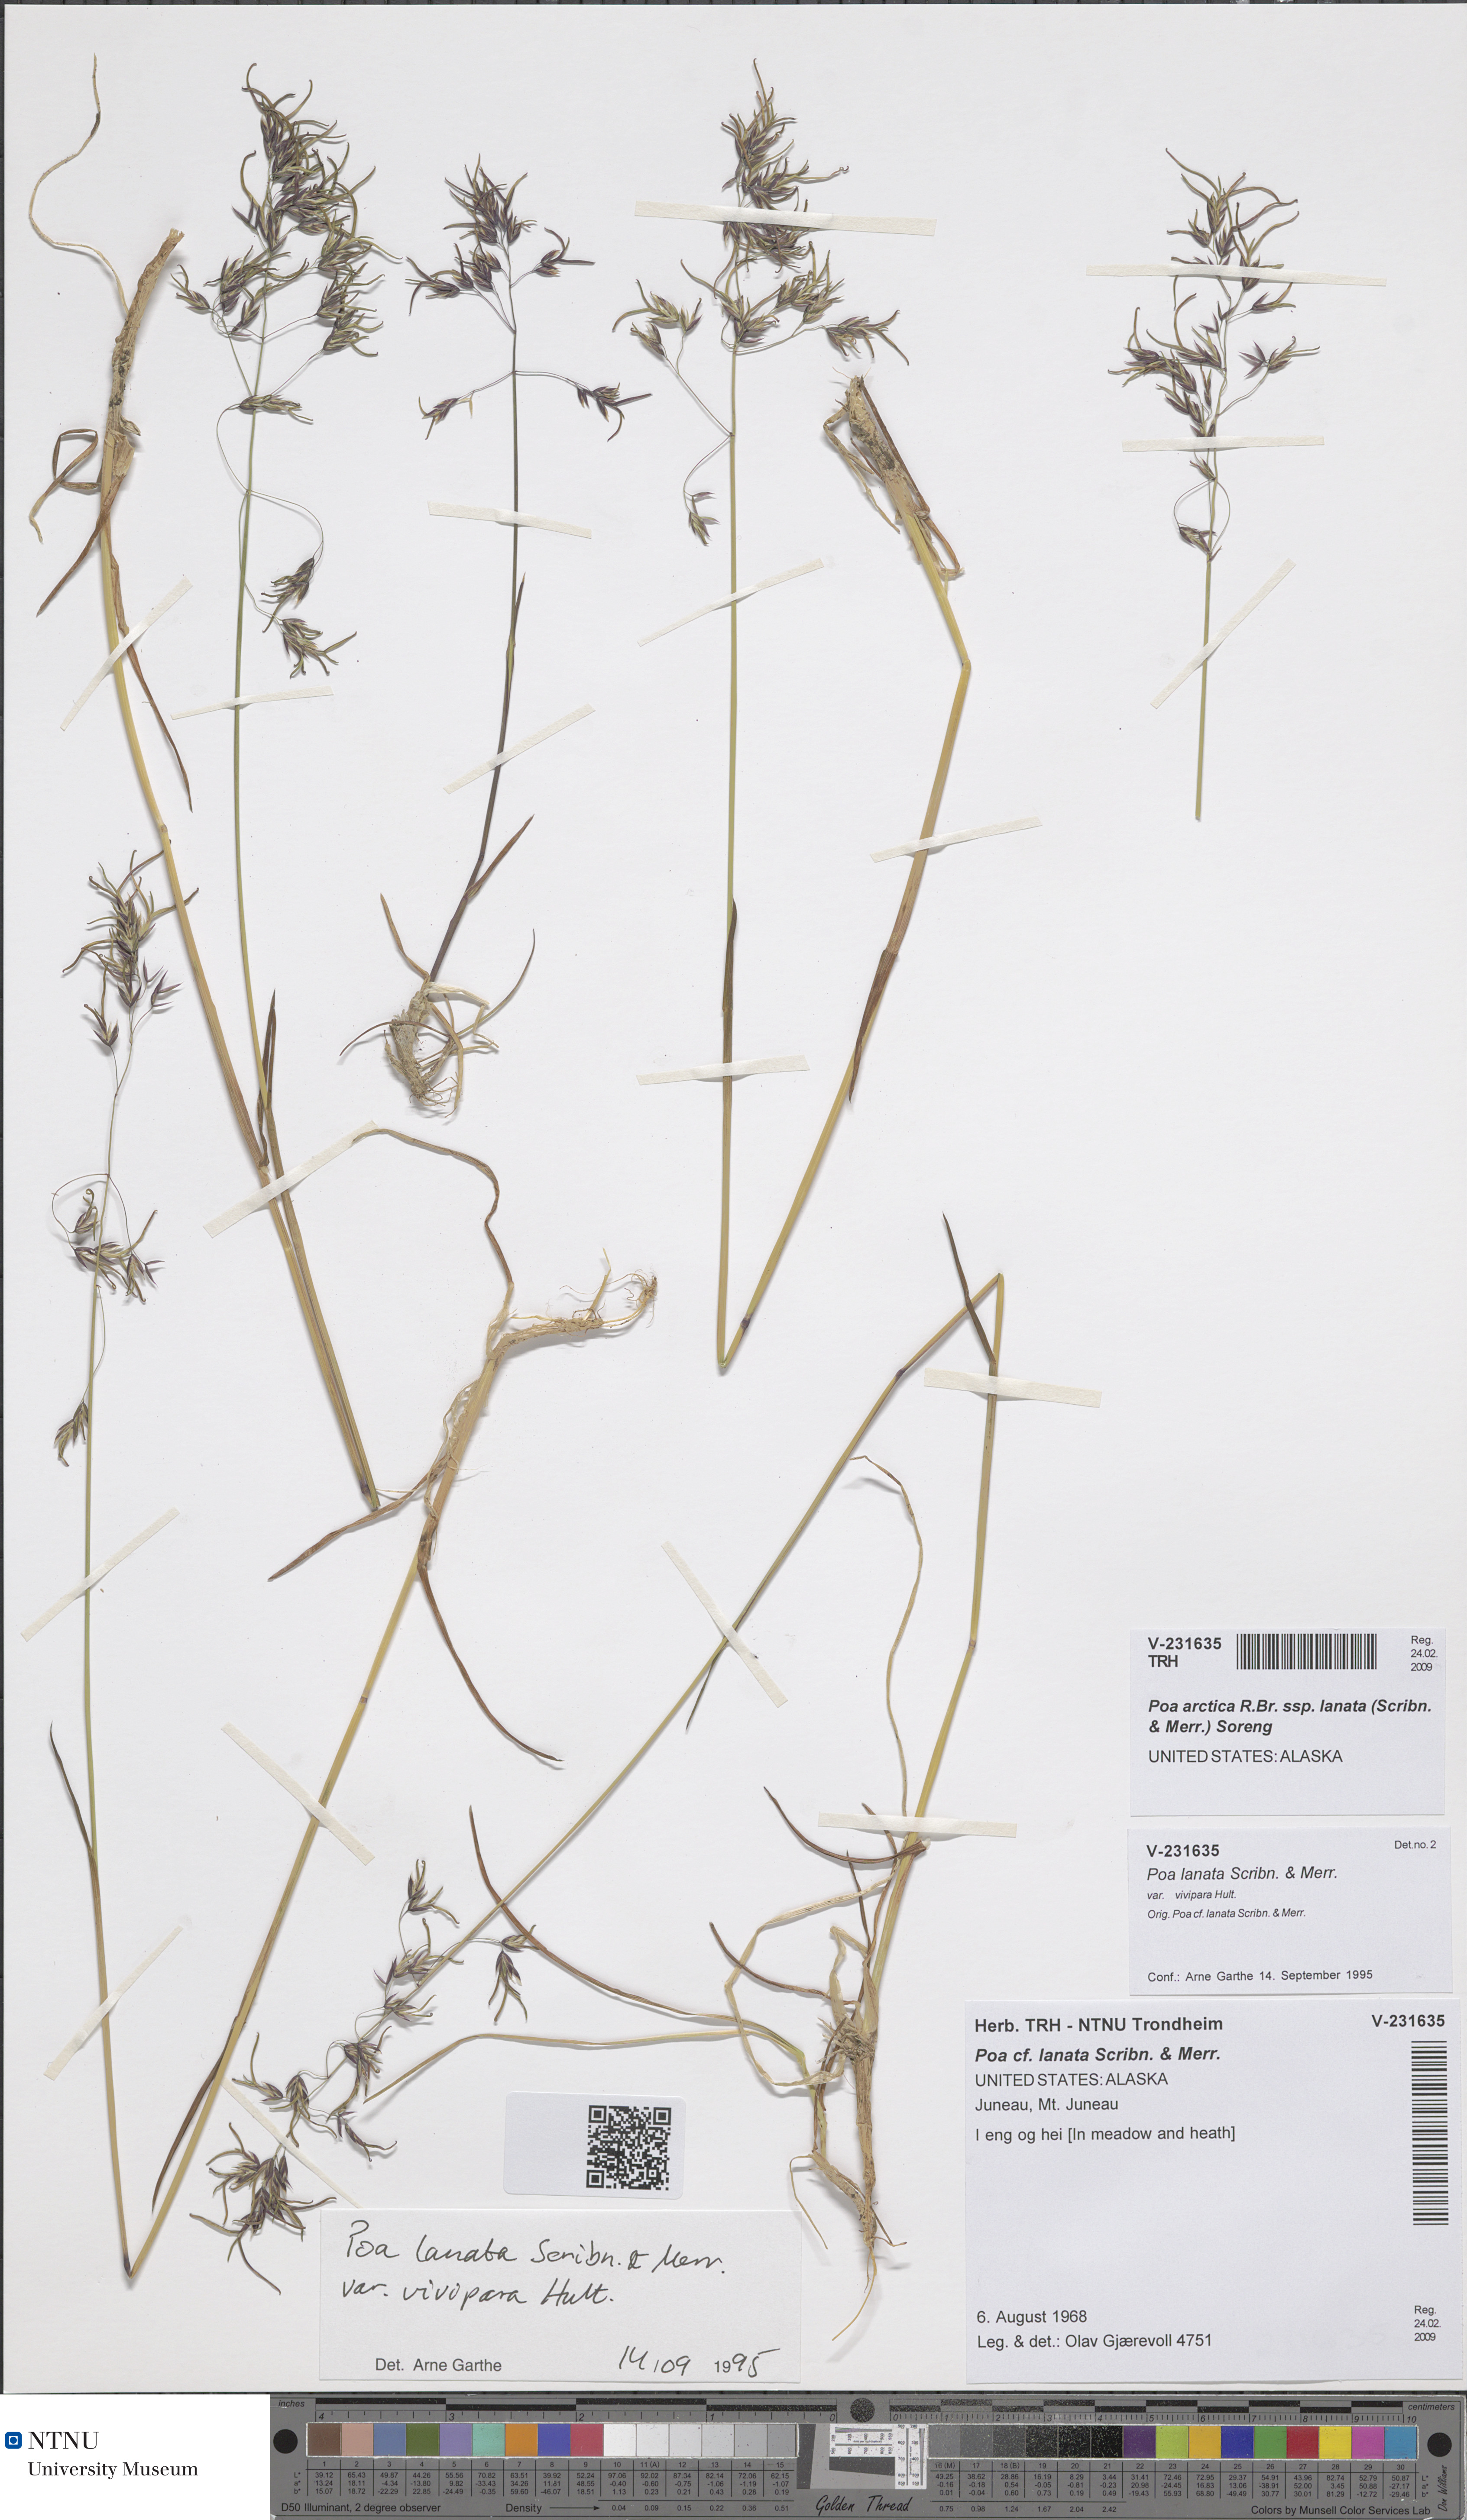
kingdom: Plantae
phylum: Tracheophyta
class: Liliopsida
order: Poales
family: Poaceae
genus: Poa
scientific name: Poa lanata
